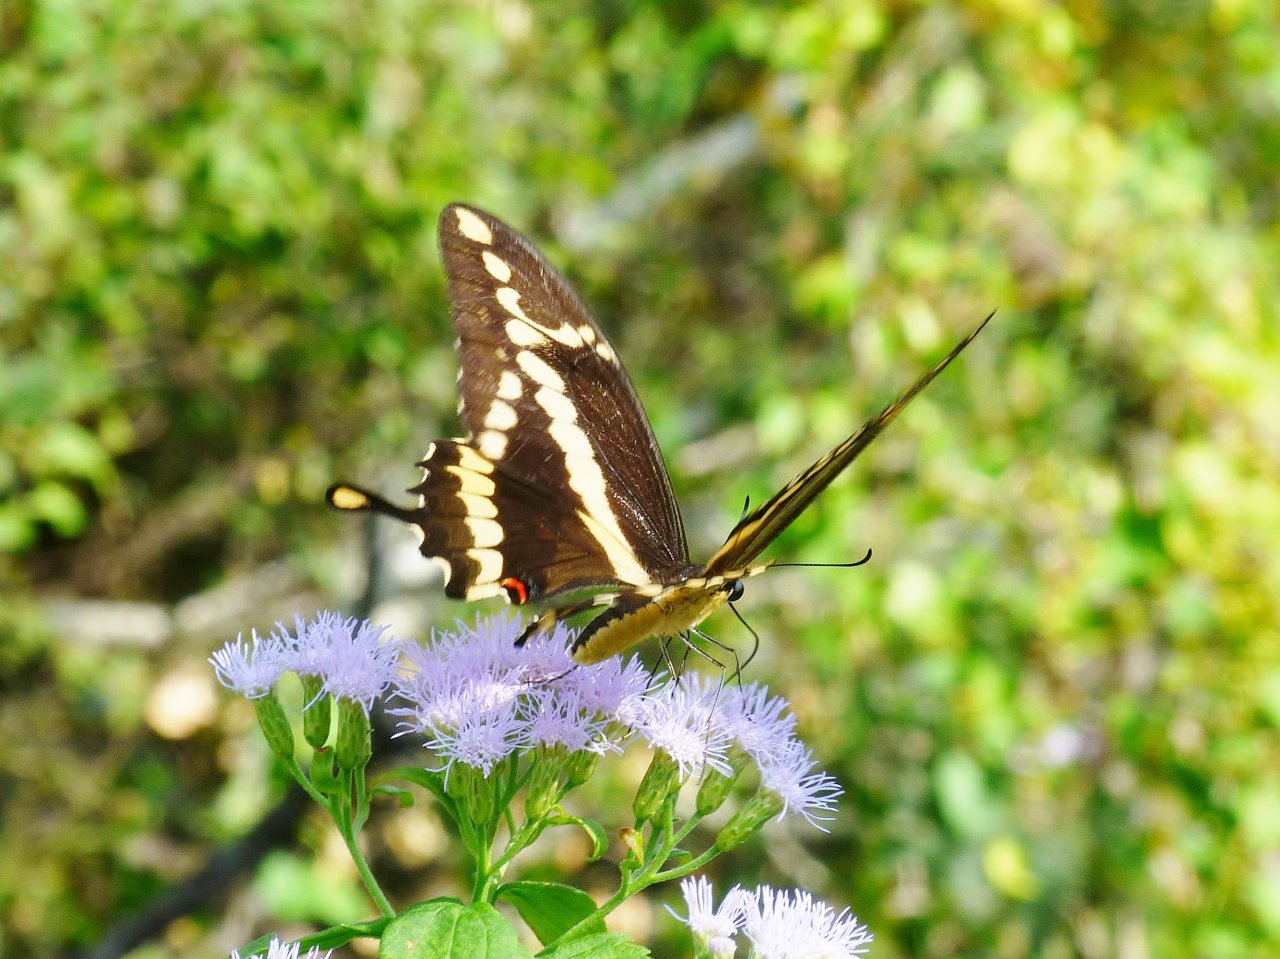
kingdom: Animalia
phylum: Arthropoda
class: Insecta
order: Lepidoptera
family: Papilionidae
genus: Papilio
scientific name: Papilio rumiko
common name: Western Giant Swallowtail
